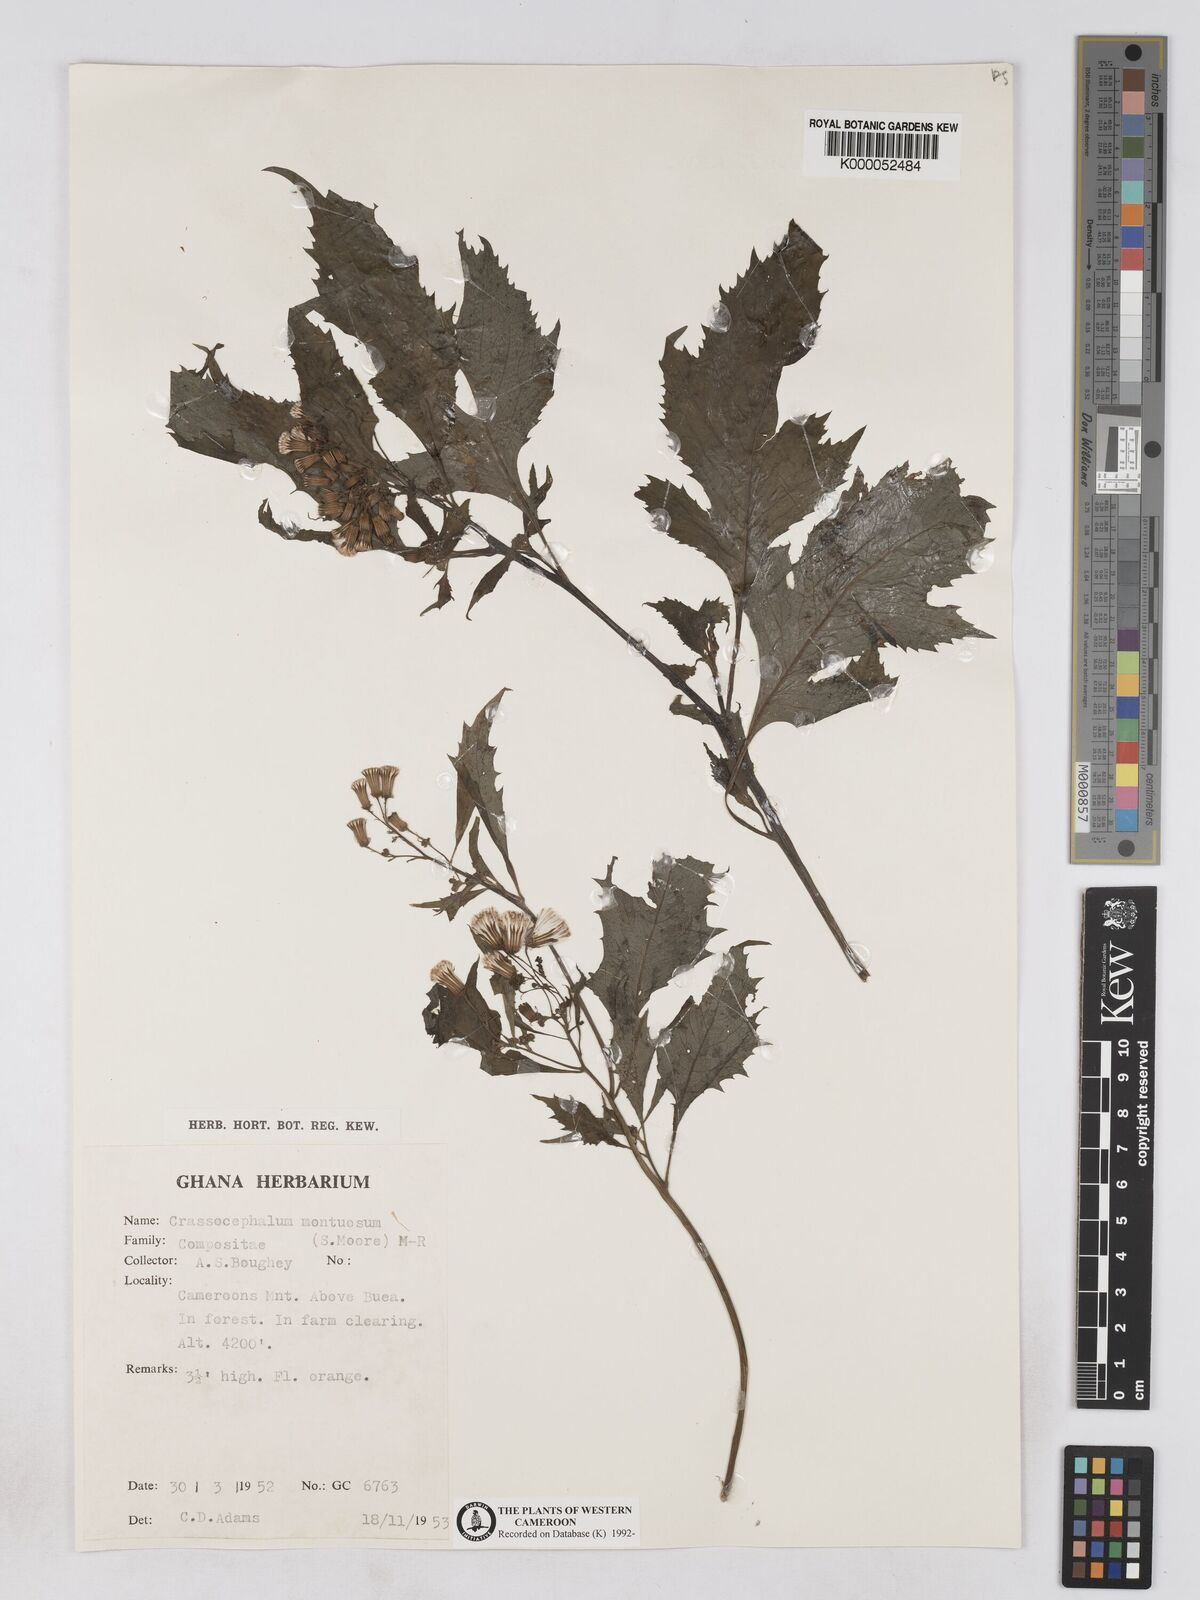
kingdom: Plantae
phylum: Tracheophyta
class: Magnoliopsida
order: Asterales
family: Asteraceae
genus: Crassocephalum
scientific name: Crassocephalum montuosum
